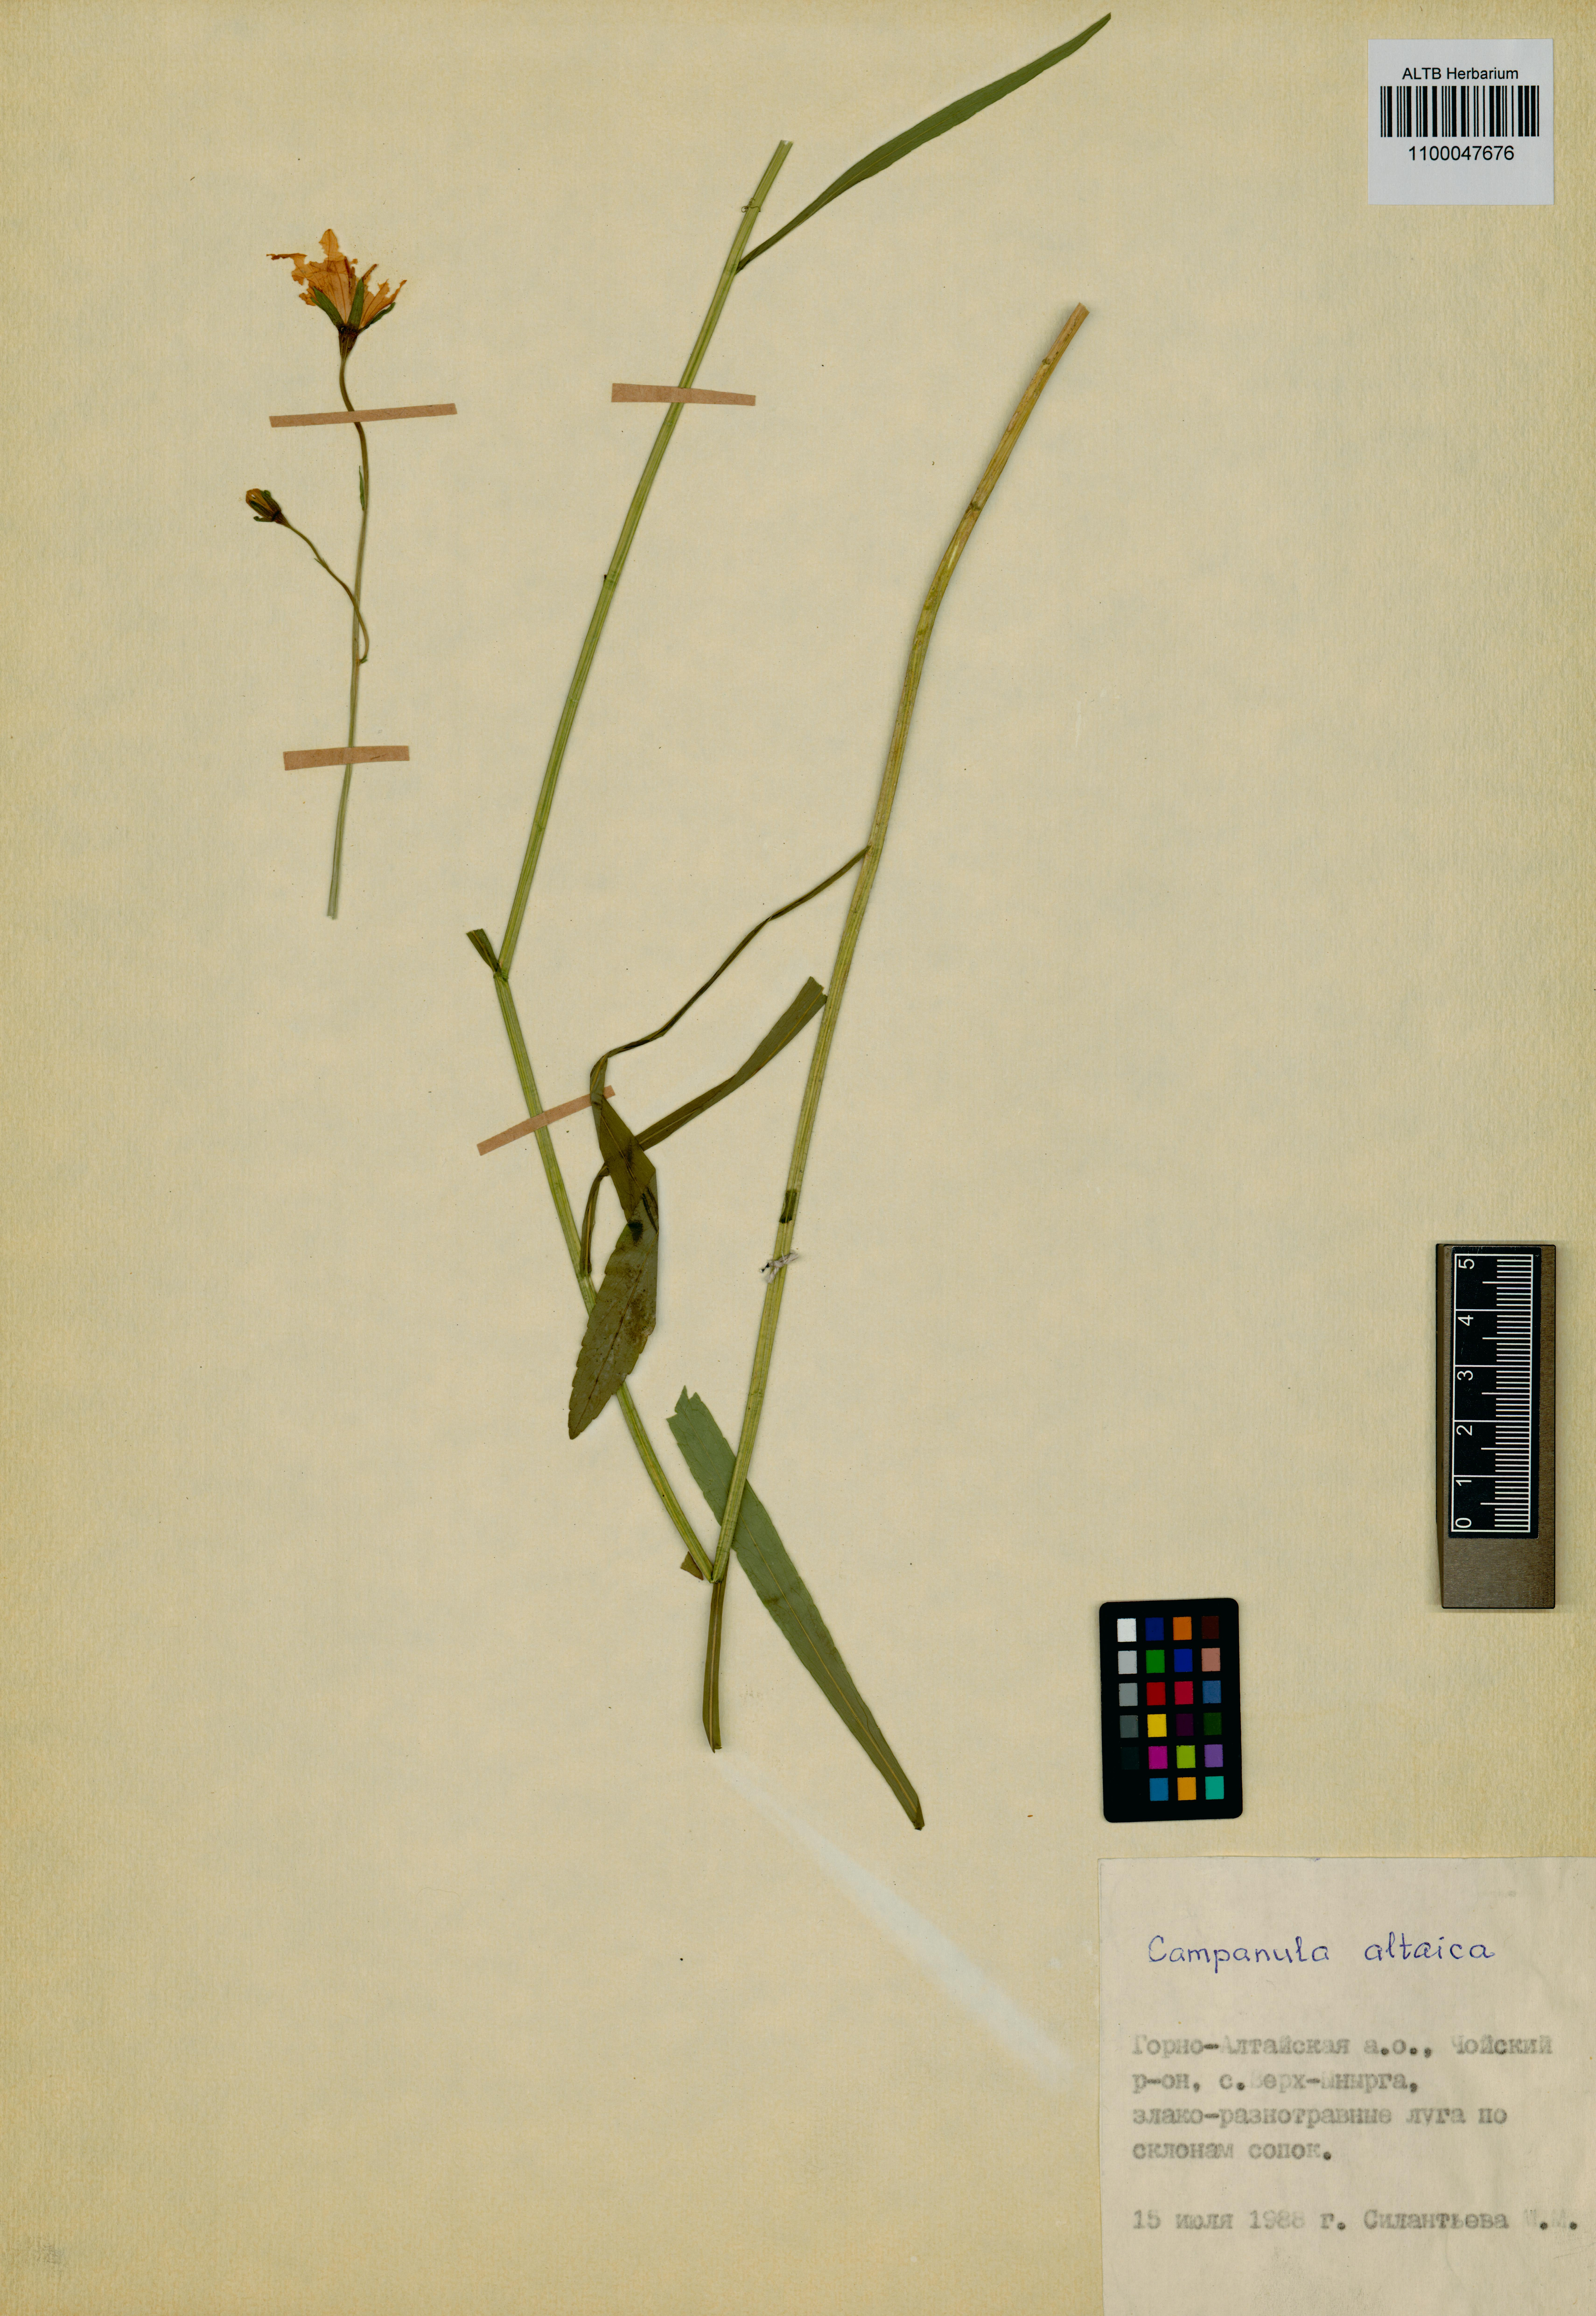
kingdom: Plantae
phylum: Tracheophyta
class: Magnoliopsida
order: Asterales
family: Campanulaceae
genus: Campanula
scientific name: Campanula stevenii
